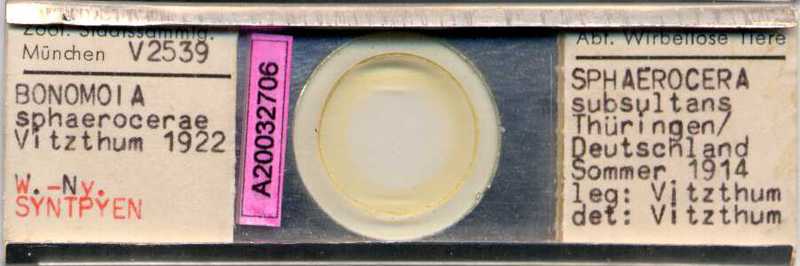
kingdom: Animalia
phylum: Arthropoda
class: Arachnida
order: Sarcoptiformes
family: Histiostomatidae
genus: Capronomoia
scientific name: Capronomoia sphaerocerae
